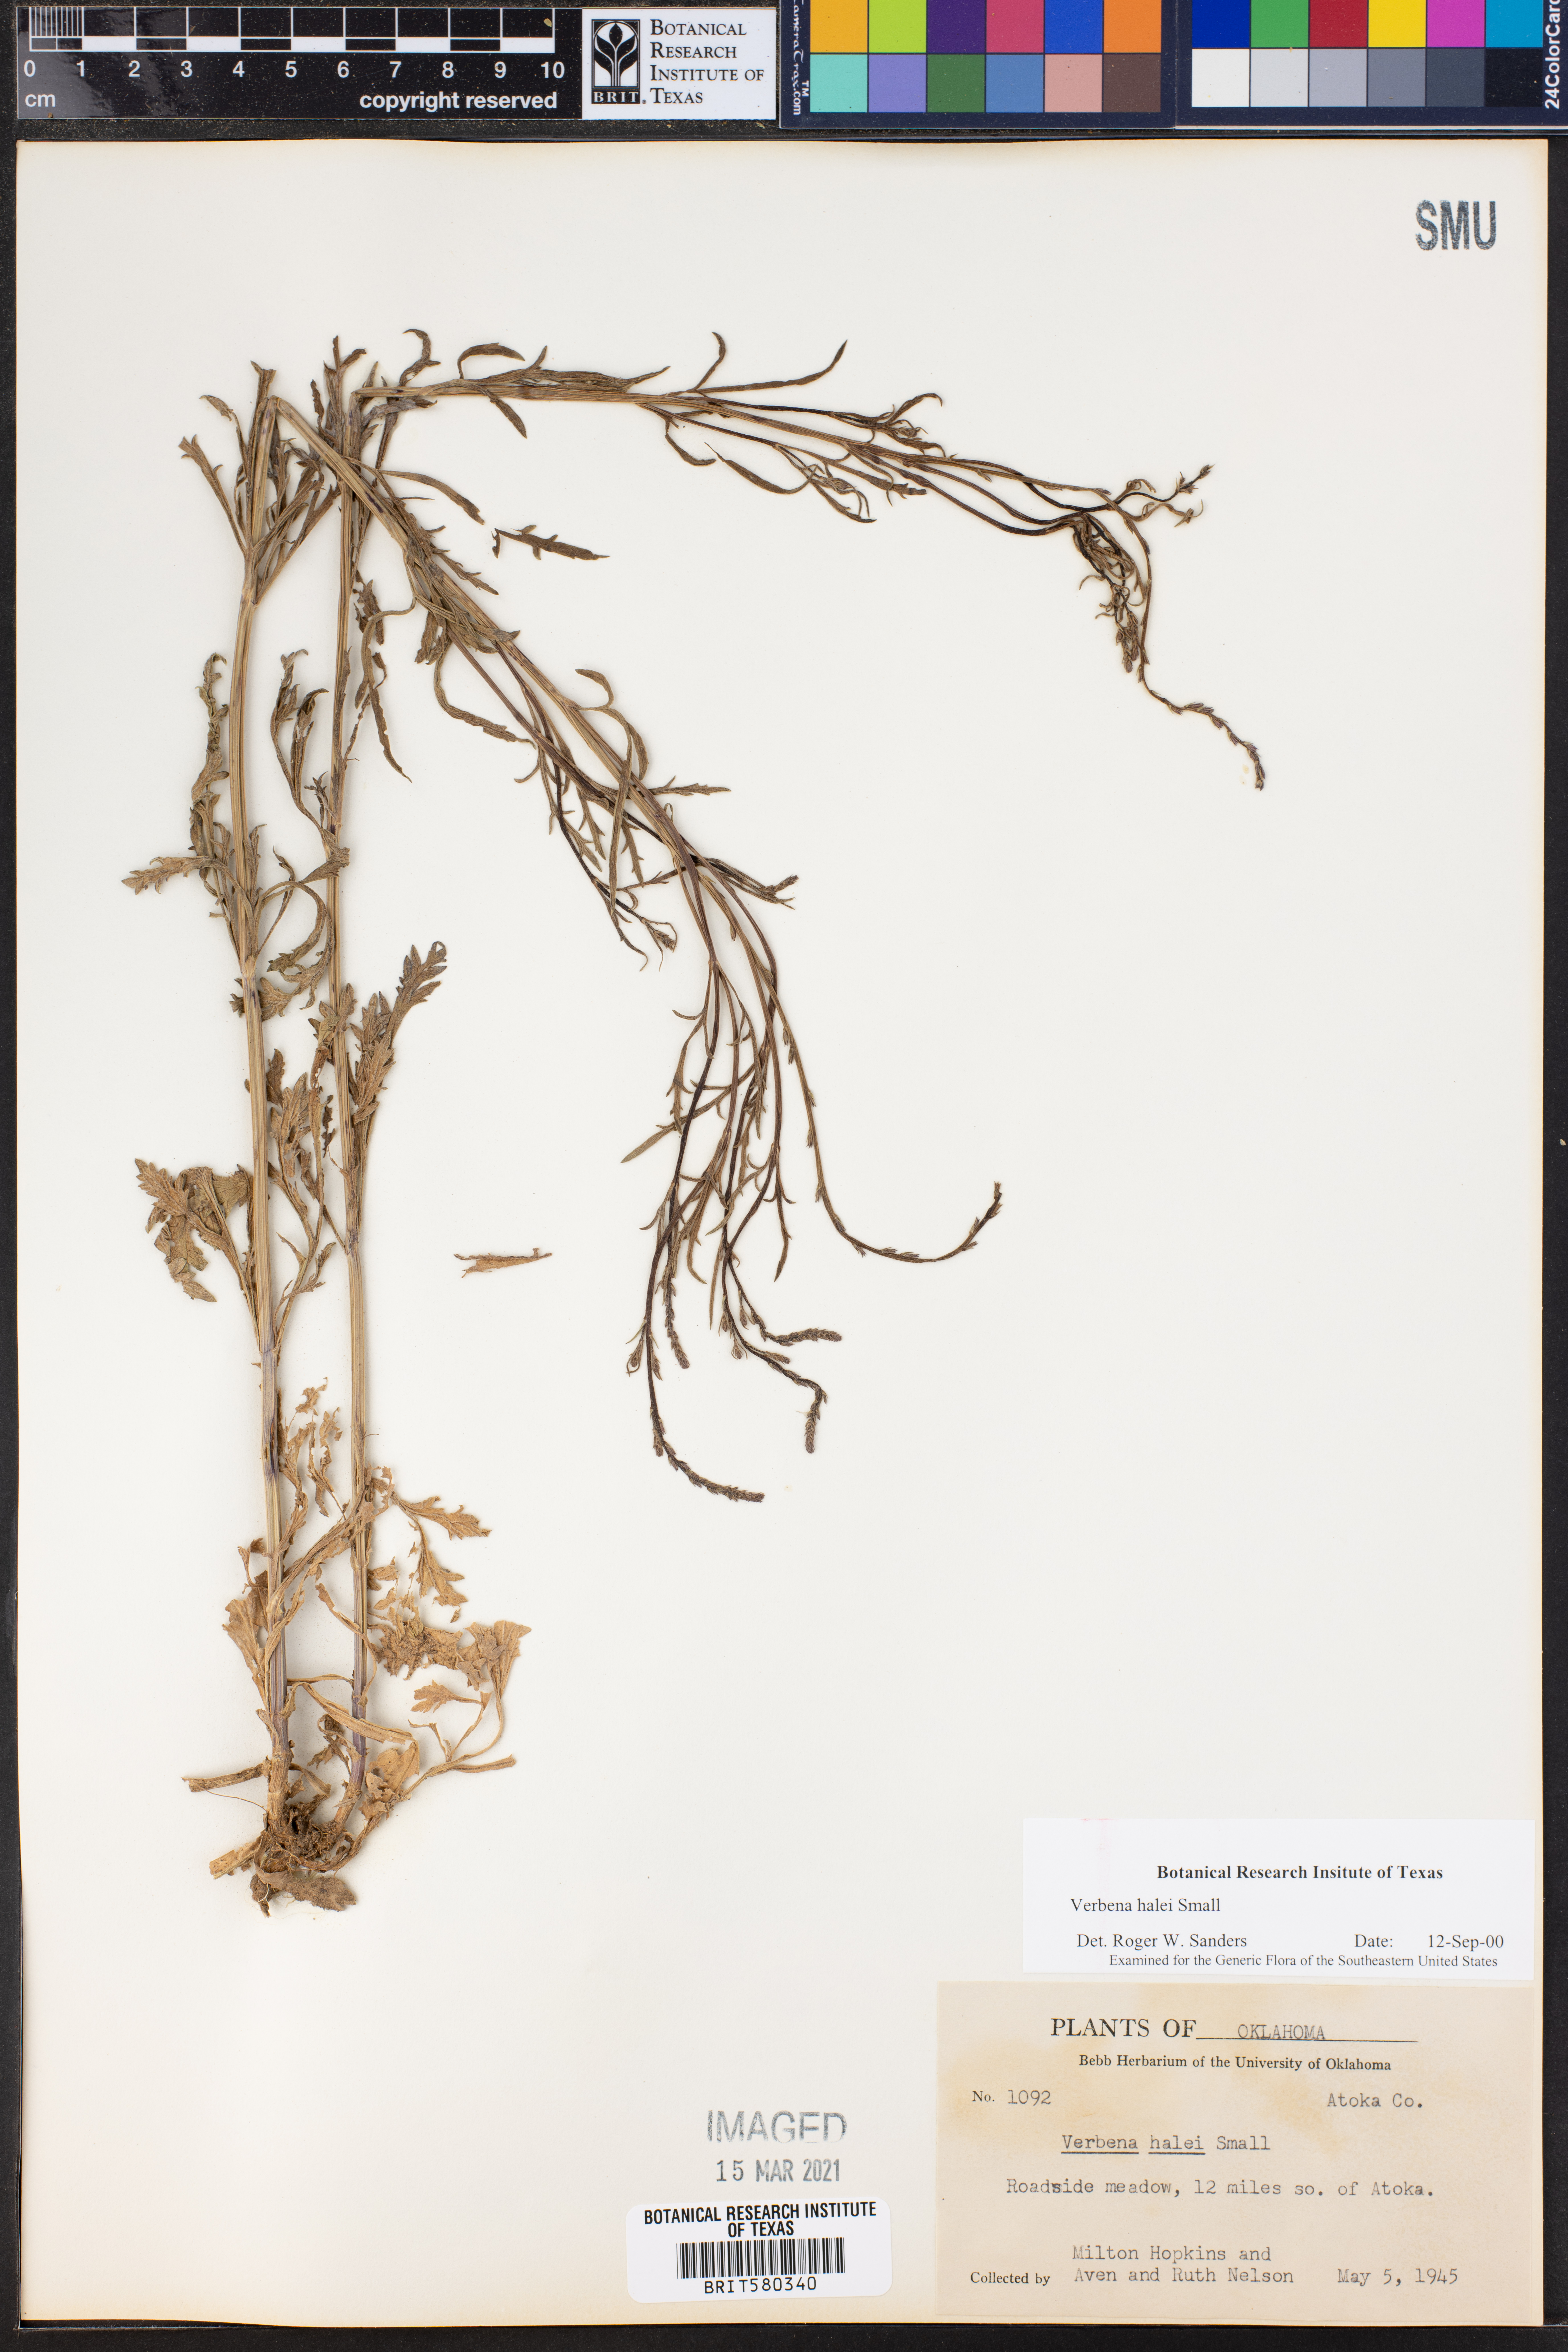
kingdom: Plantae
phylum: Tracheophyta
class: Magnoliopsida
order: Lamiales
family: Verbenaceae
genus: Verbena
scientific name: Verbena halei
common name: Texas vervain
